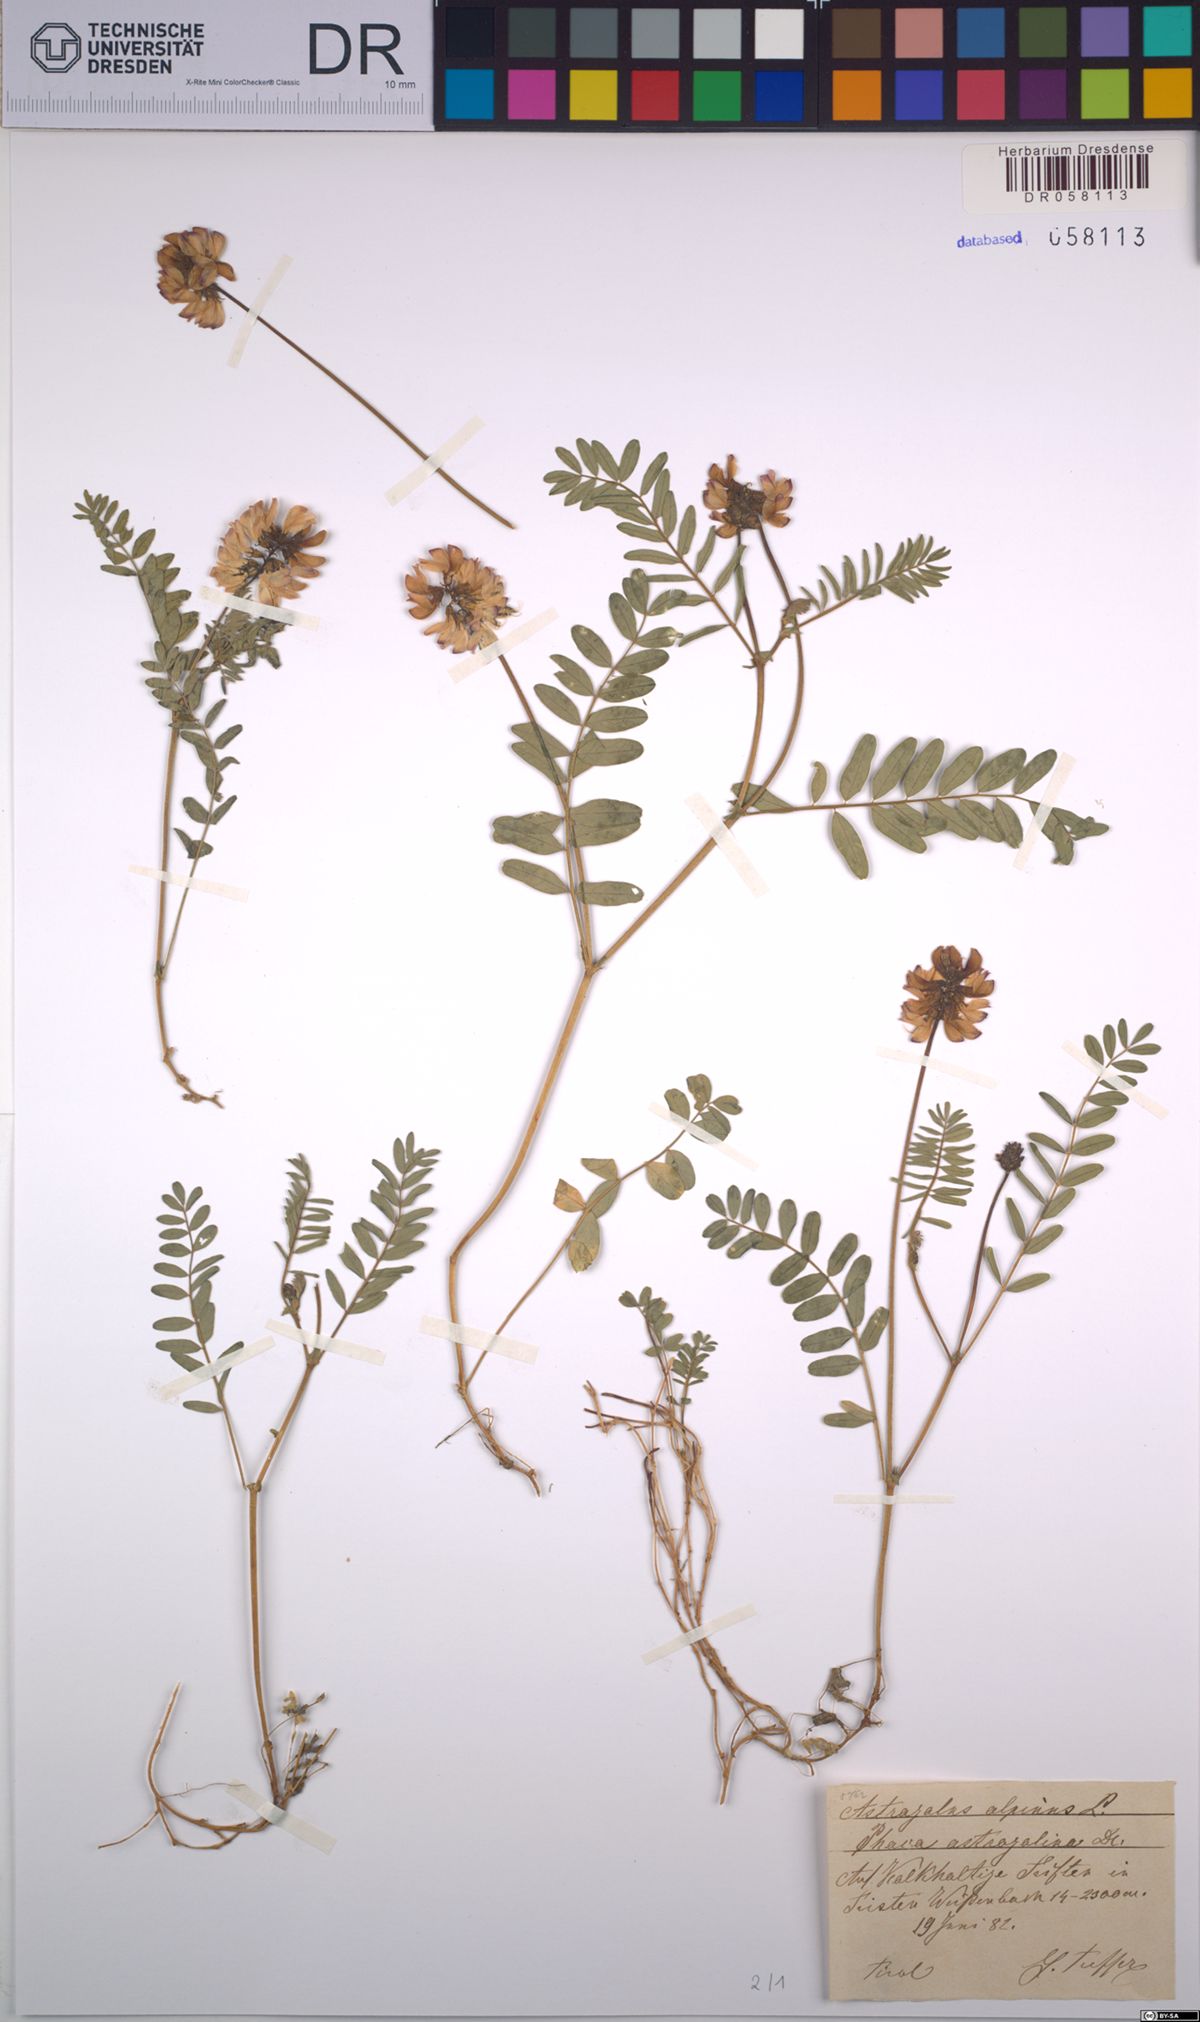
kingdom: Plantae
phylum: Tracheophyta
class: Magnoliopsida
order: Fabales
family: Fabaceae
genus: Astragalus
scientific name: Astragalus alpinus
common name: Alpine milk-vetch
